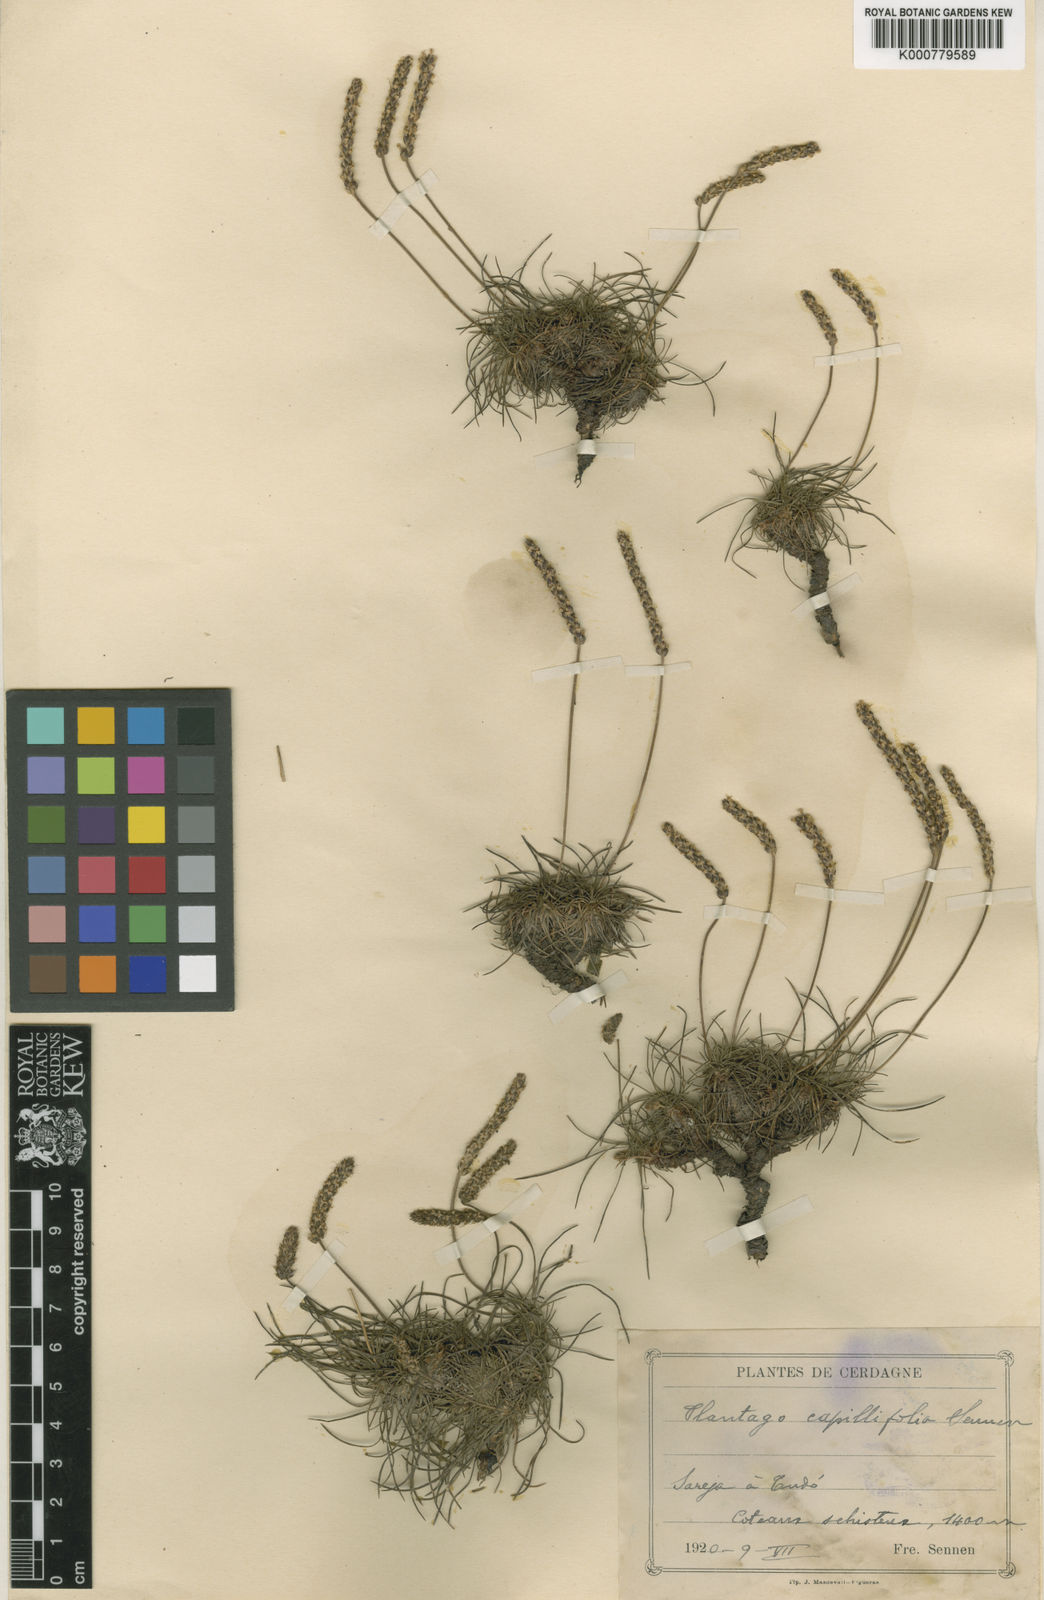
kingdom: Plantae
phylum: Tracheophyta
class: Magnoliopsida
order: Lamiales
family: Plantaginaceae
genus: Plantago
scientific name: Plantago
